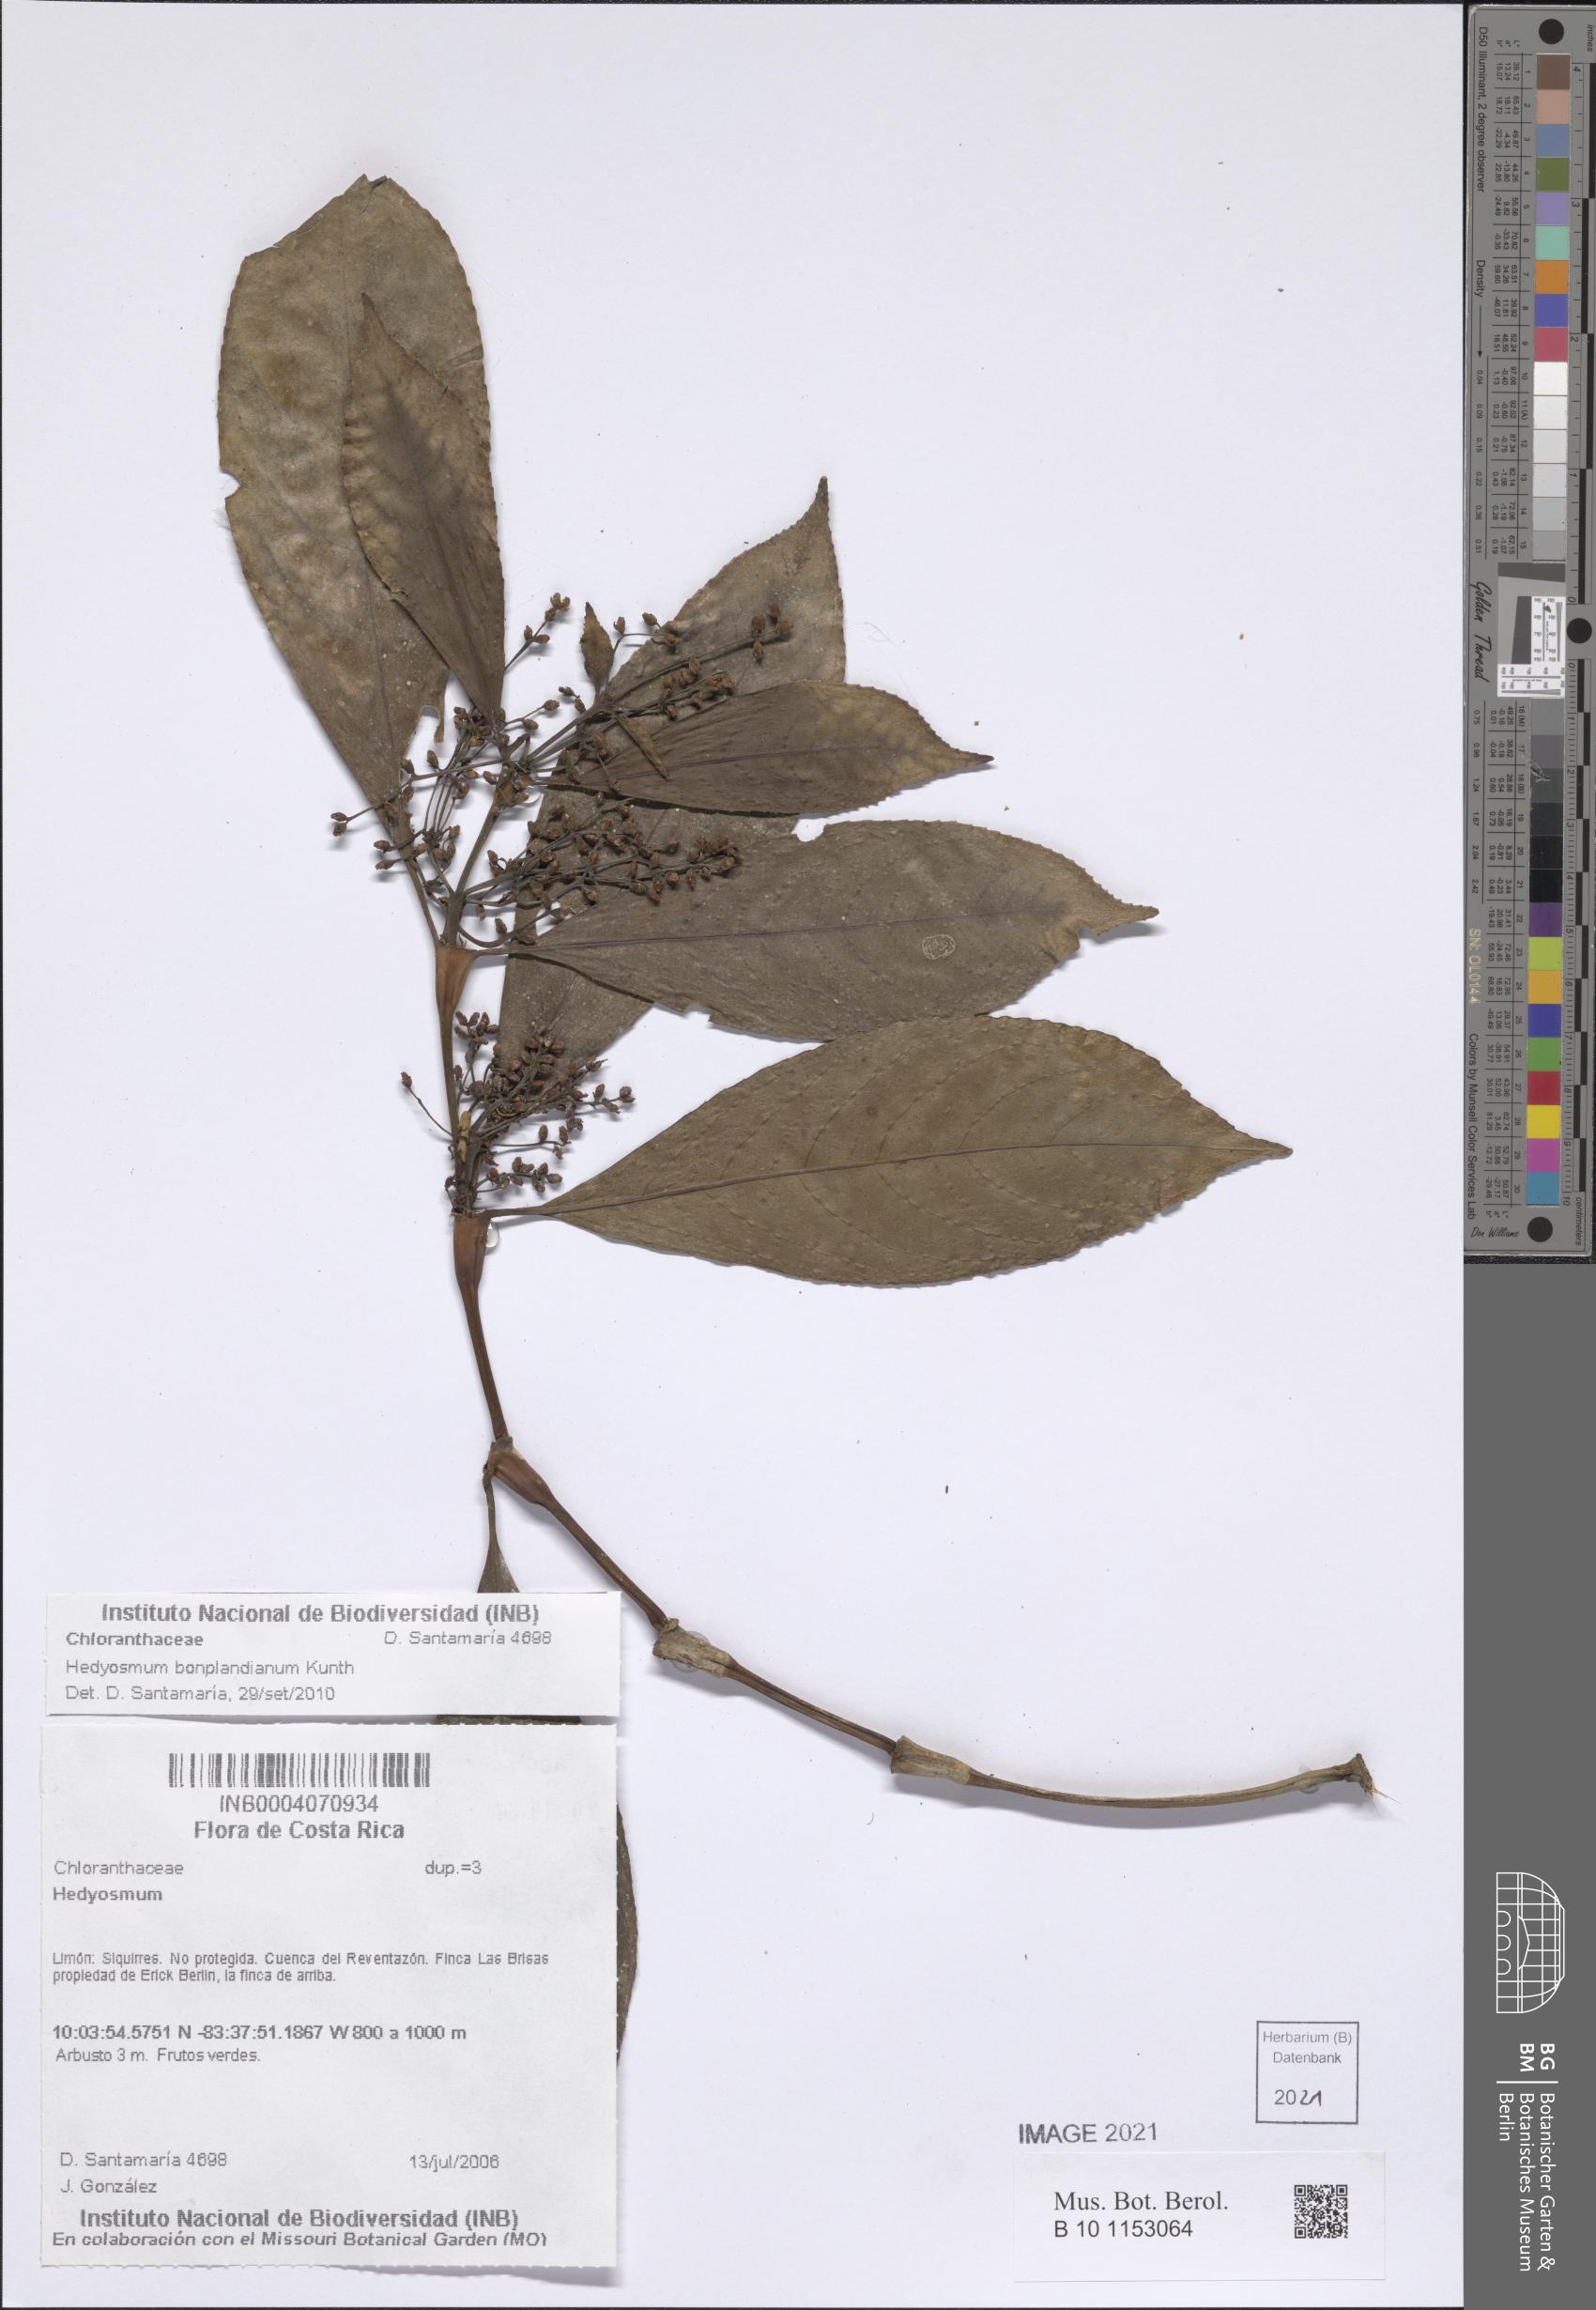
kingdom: Plantae
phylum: Tracheophyta
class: Magnoliopsida
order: Chloranthales
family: Chloranthaceae
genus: Hedyosmum
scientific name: Hedyosmum bonplandianum
